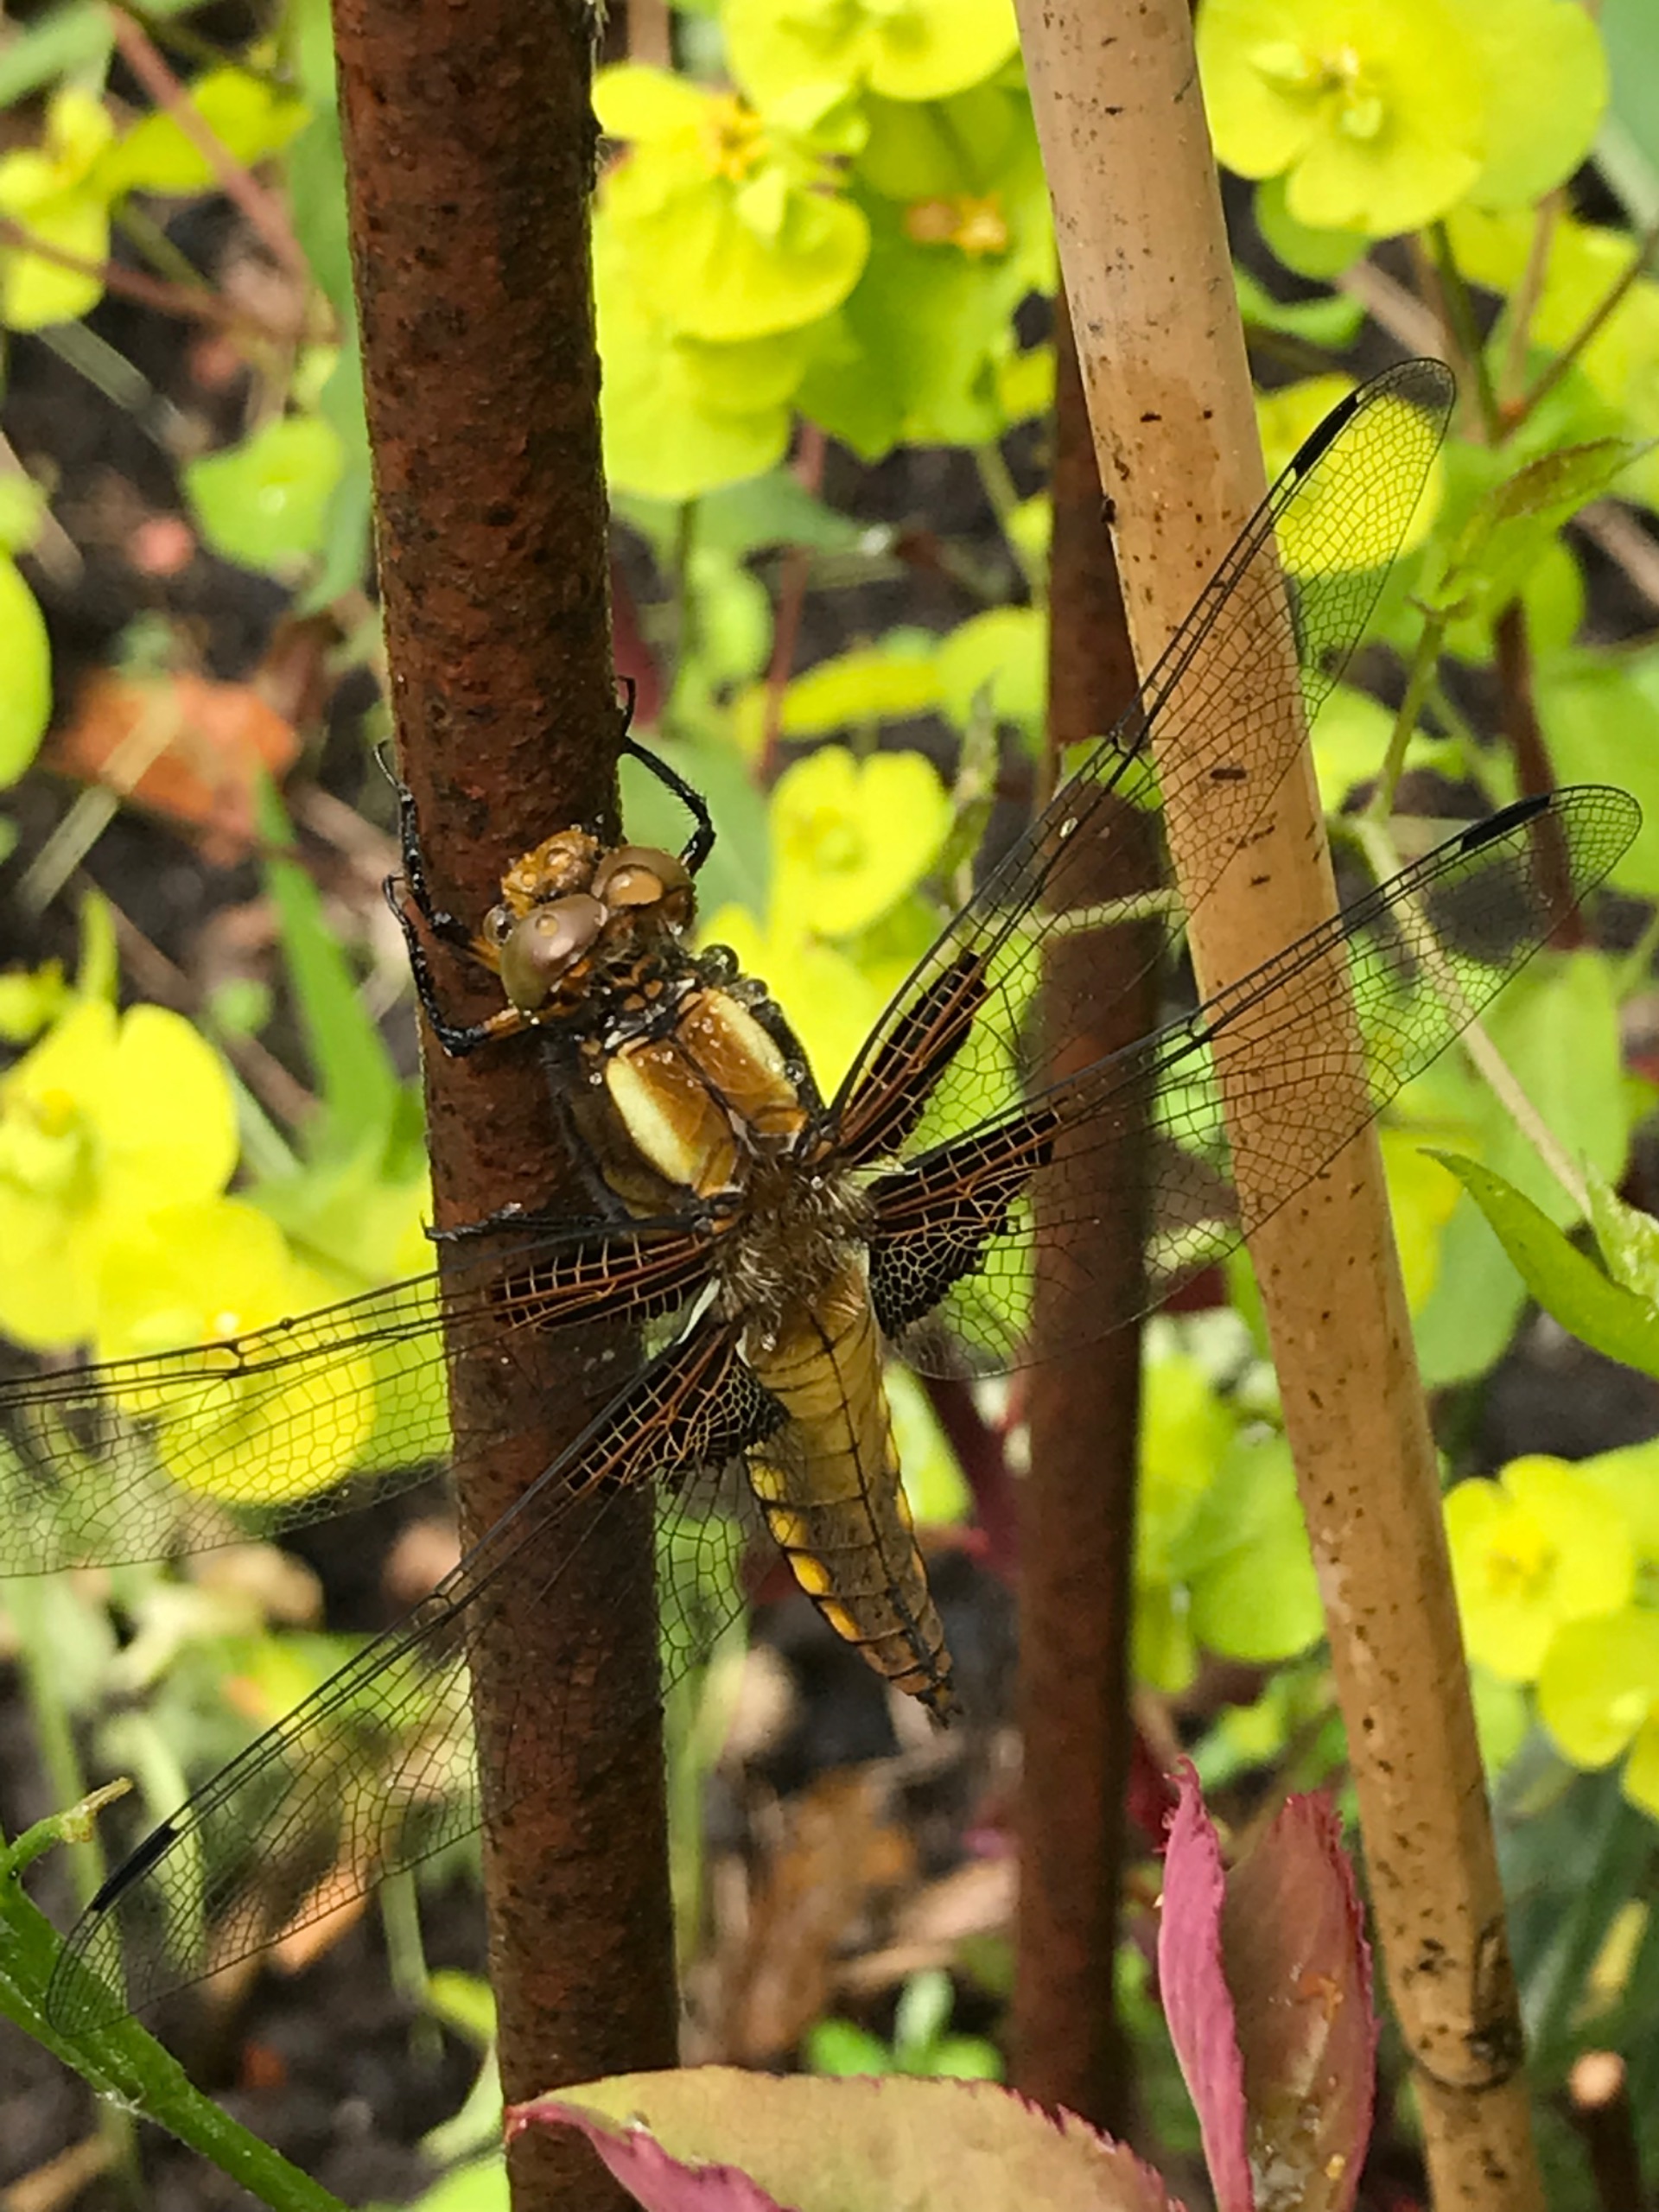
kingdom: Animalia
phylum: Arthropoda
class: Insecta
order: Odonata
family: Libellulidae
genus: Libellula
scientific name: Libellula depressa
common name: Blå libel
